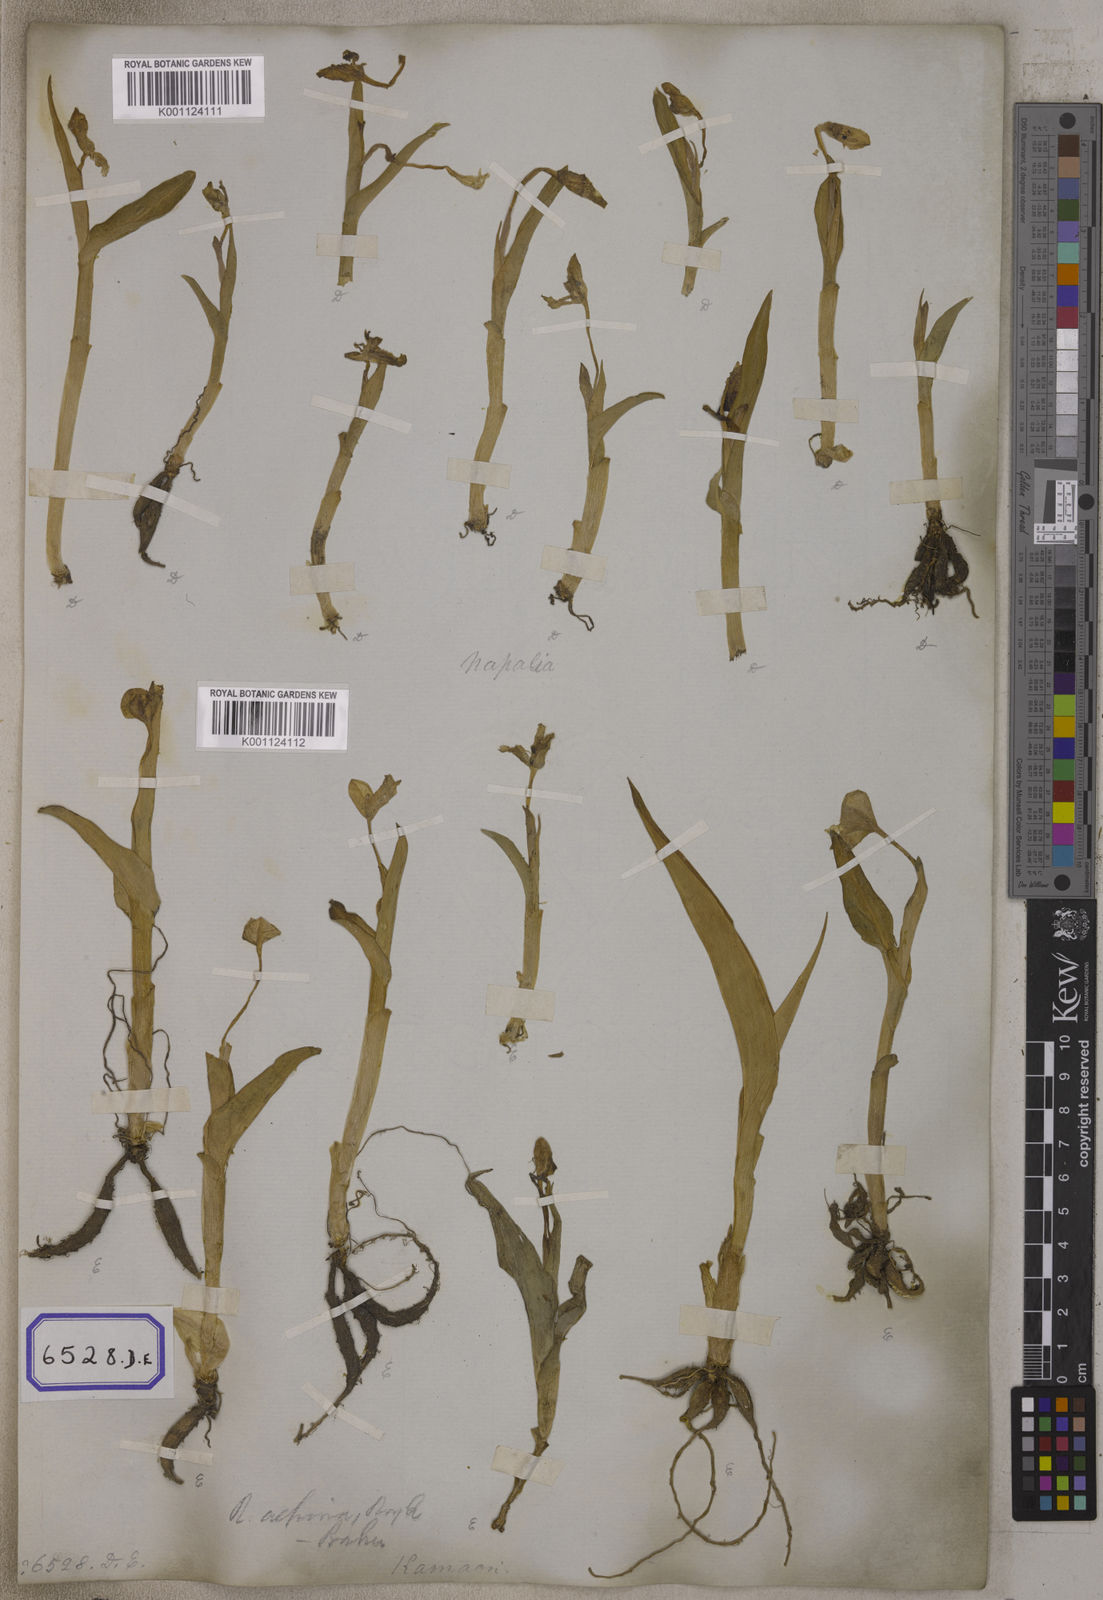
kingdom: Plantae
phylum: Tracheophyta
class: Liliopsida
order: Zingiberales
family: Zingiberaceae
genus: Roscoea
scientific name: Roscoea purpurea
